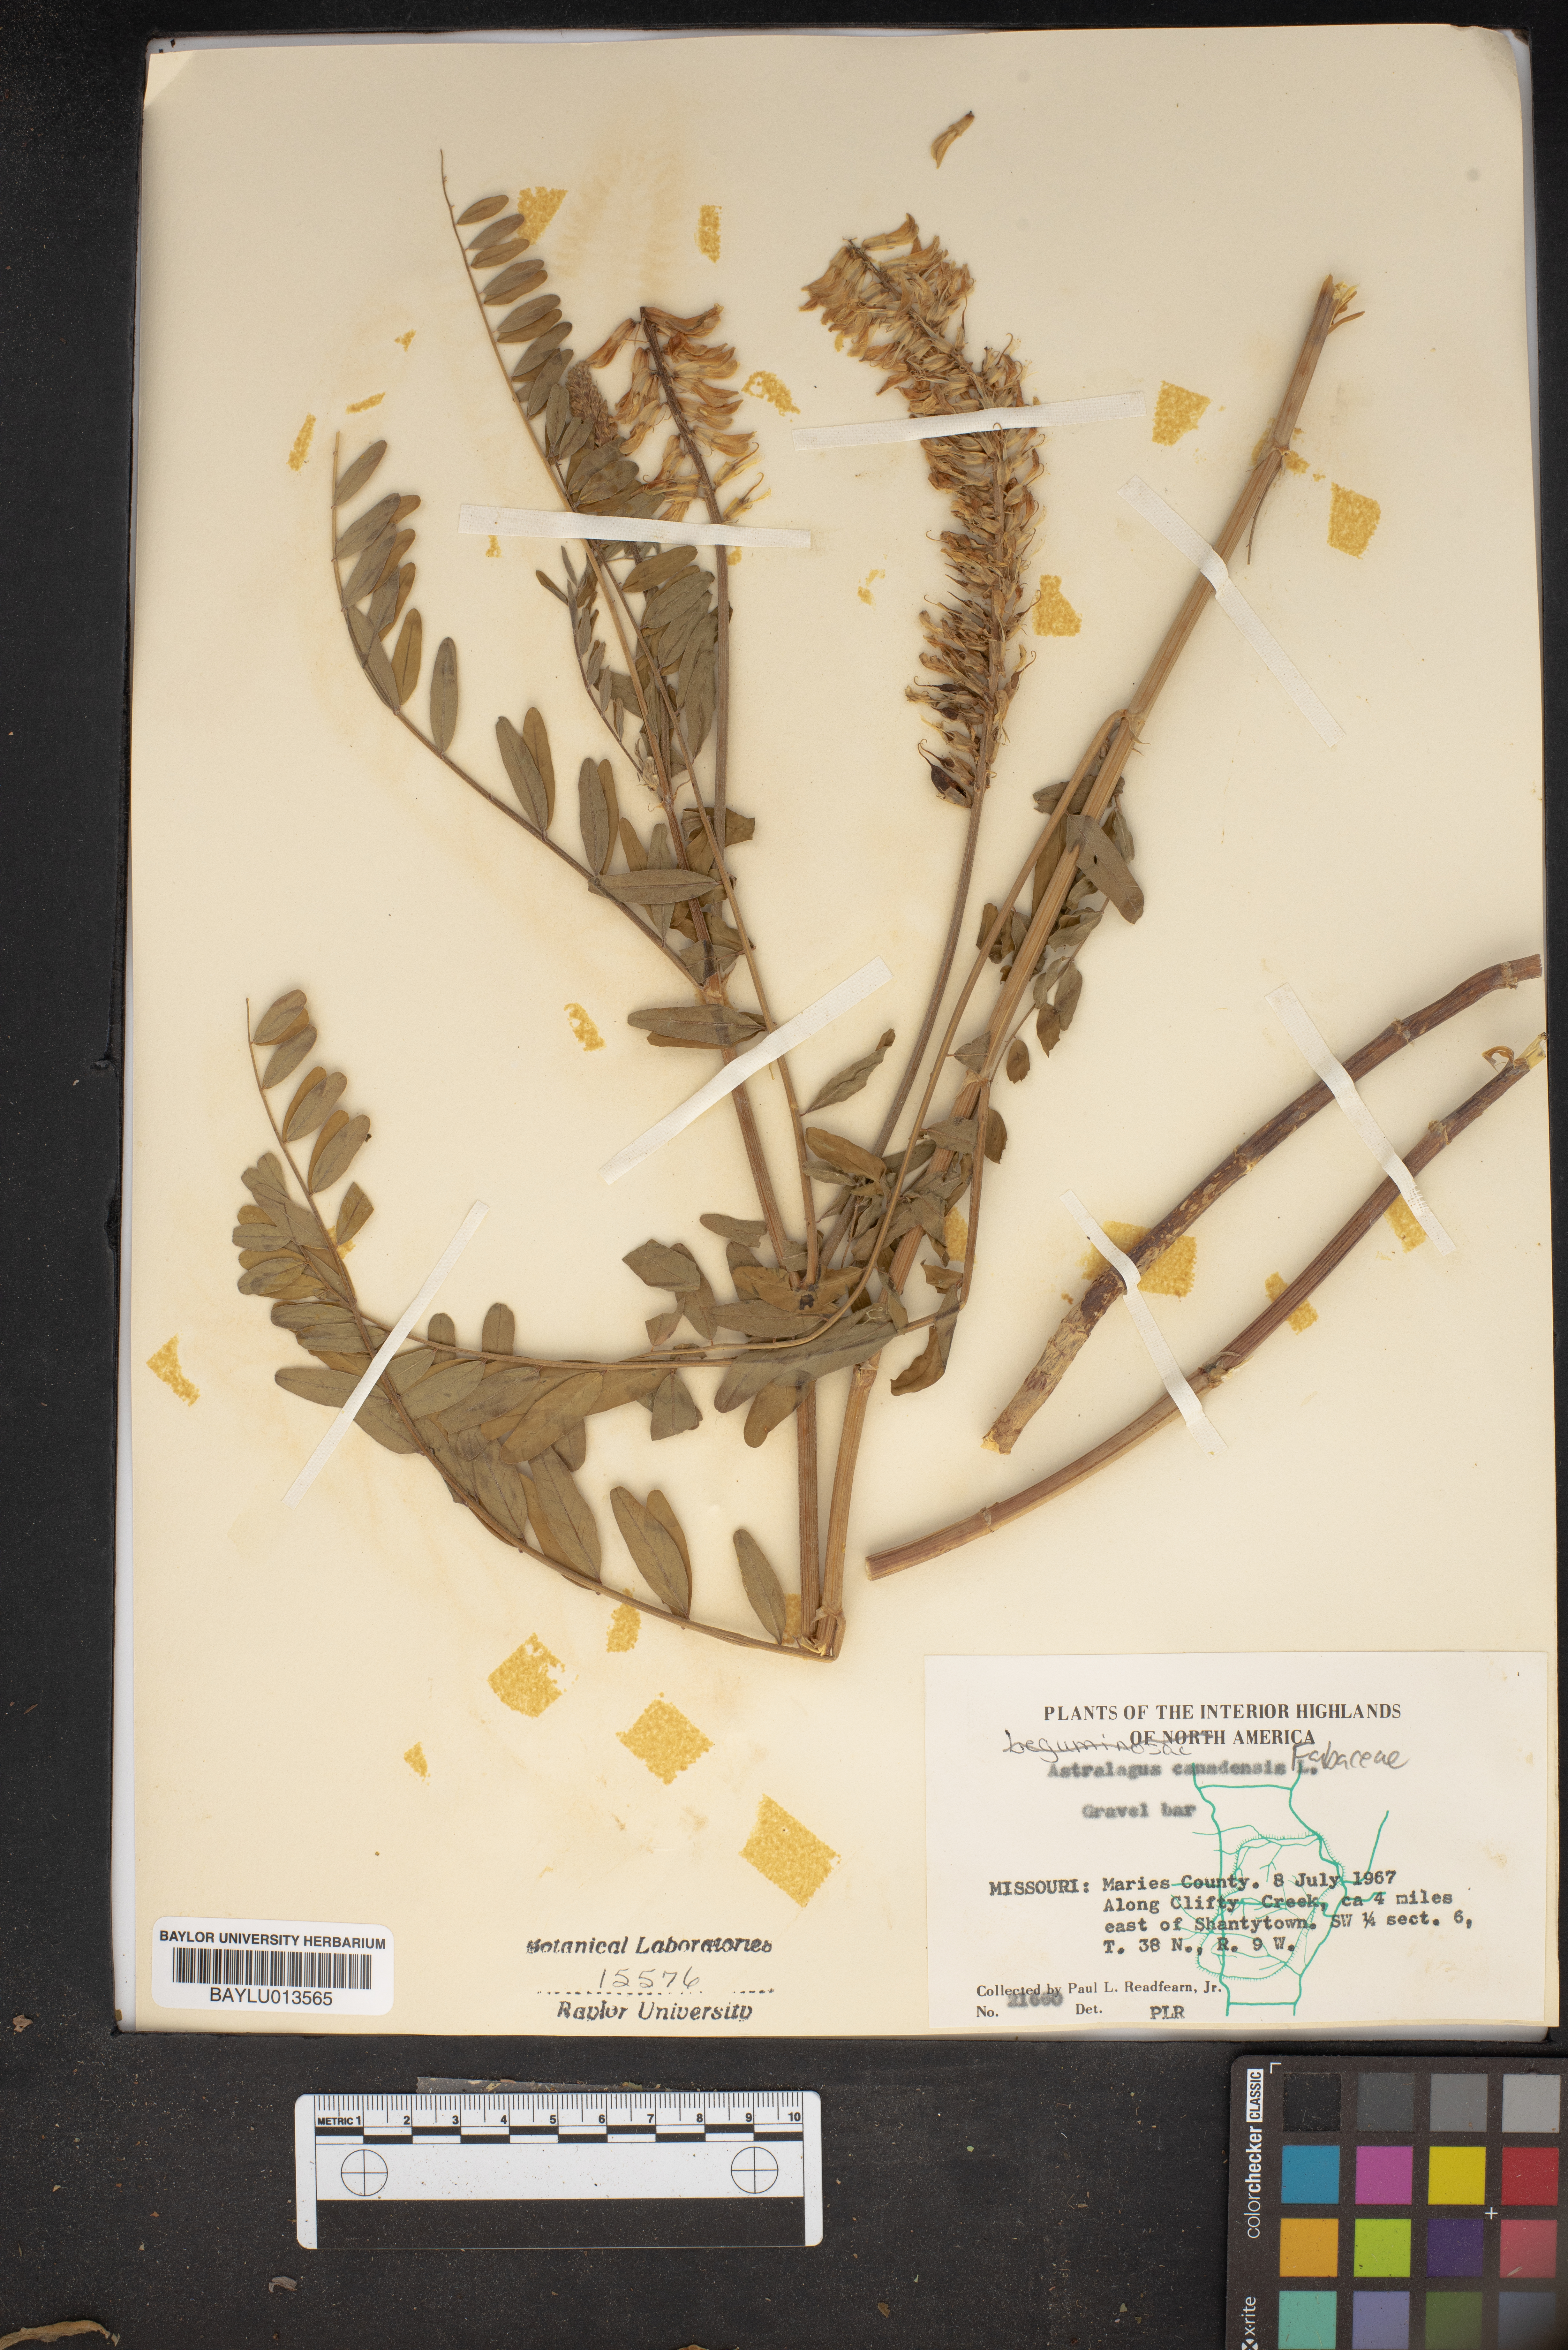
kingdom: Plantae
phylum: Tracheophyta
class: Magnoliopsida
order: Fabales
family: Fabaceae
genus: Astragalus
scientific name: Astragalus canadensis
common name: Canada milk-vetch
